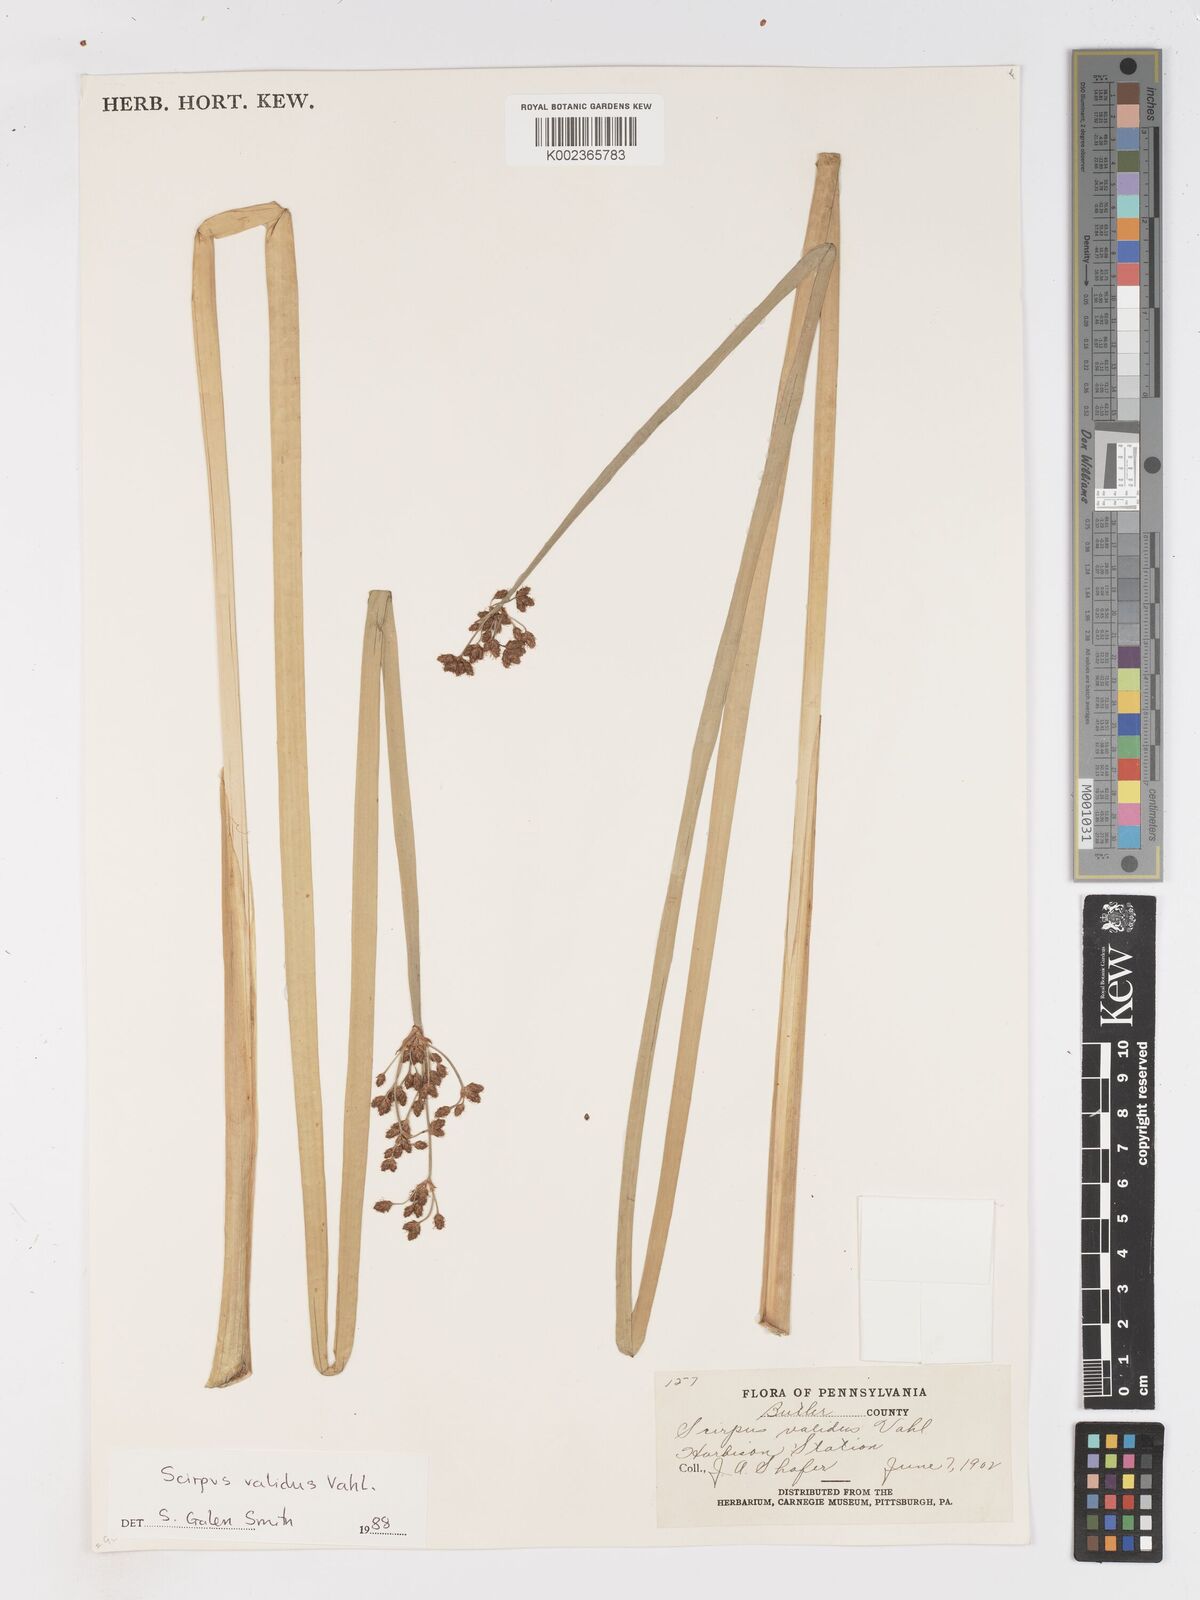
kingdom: Plantae
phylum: Tracheophyta
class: Liliopsida
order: Poales
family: Cyperaceae
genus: Schoenoplectus
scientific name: Schoenoplectus tabernaemontani
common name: Grey club-rush
